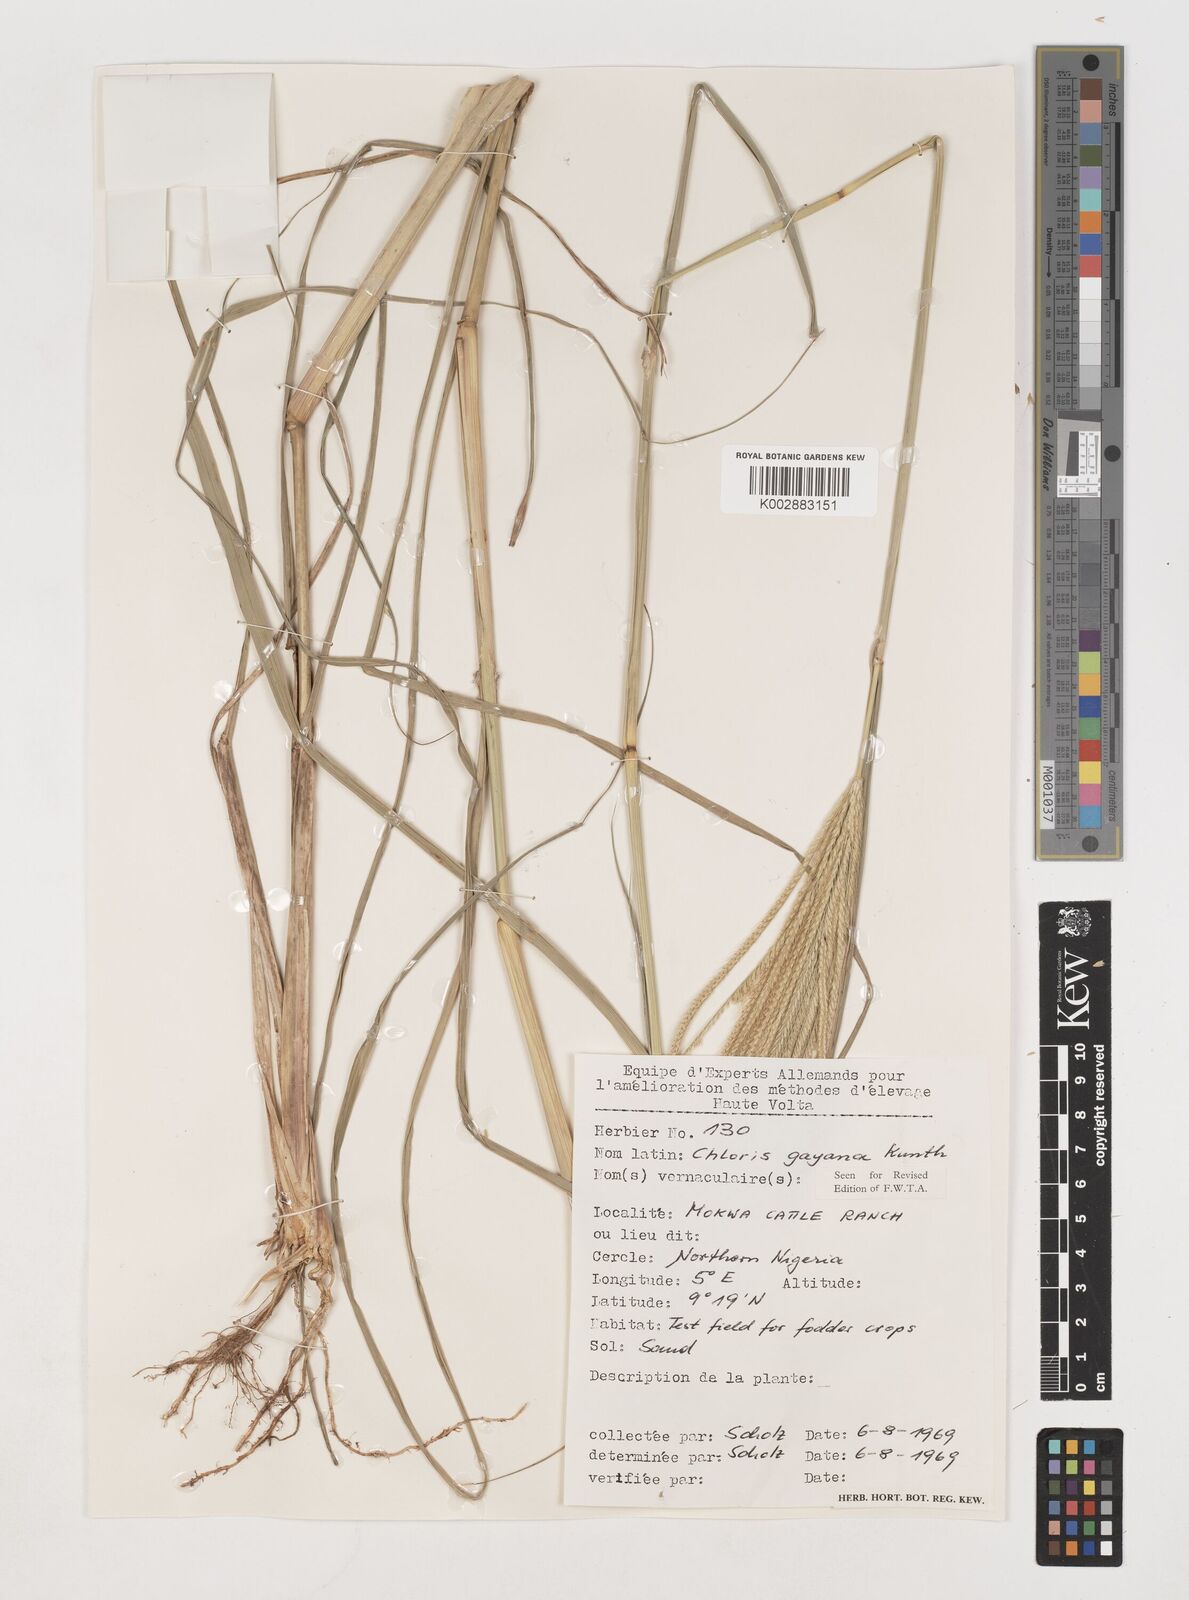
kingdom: Plantae
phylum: Tracheophyta
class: Liliopsida
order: Poales
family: Poaceae
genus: Chloris
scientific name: Chloris gayana
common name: Rhodes grass
